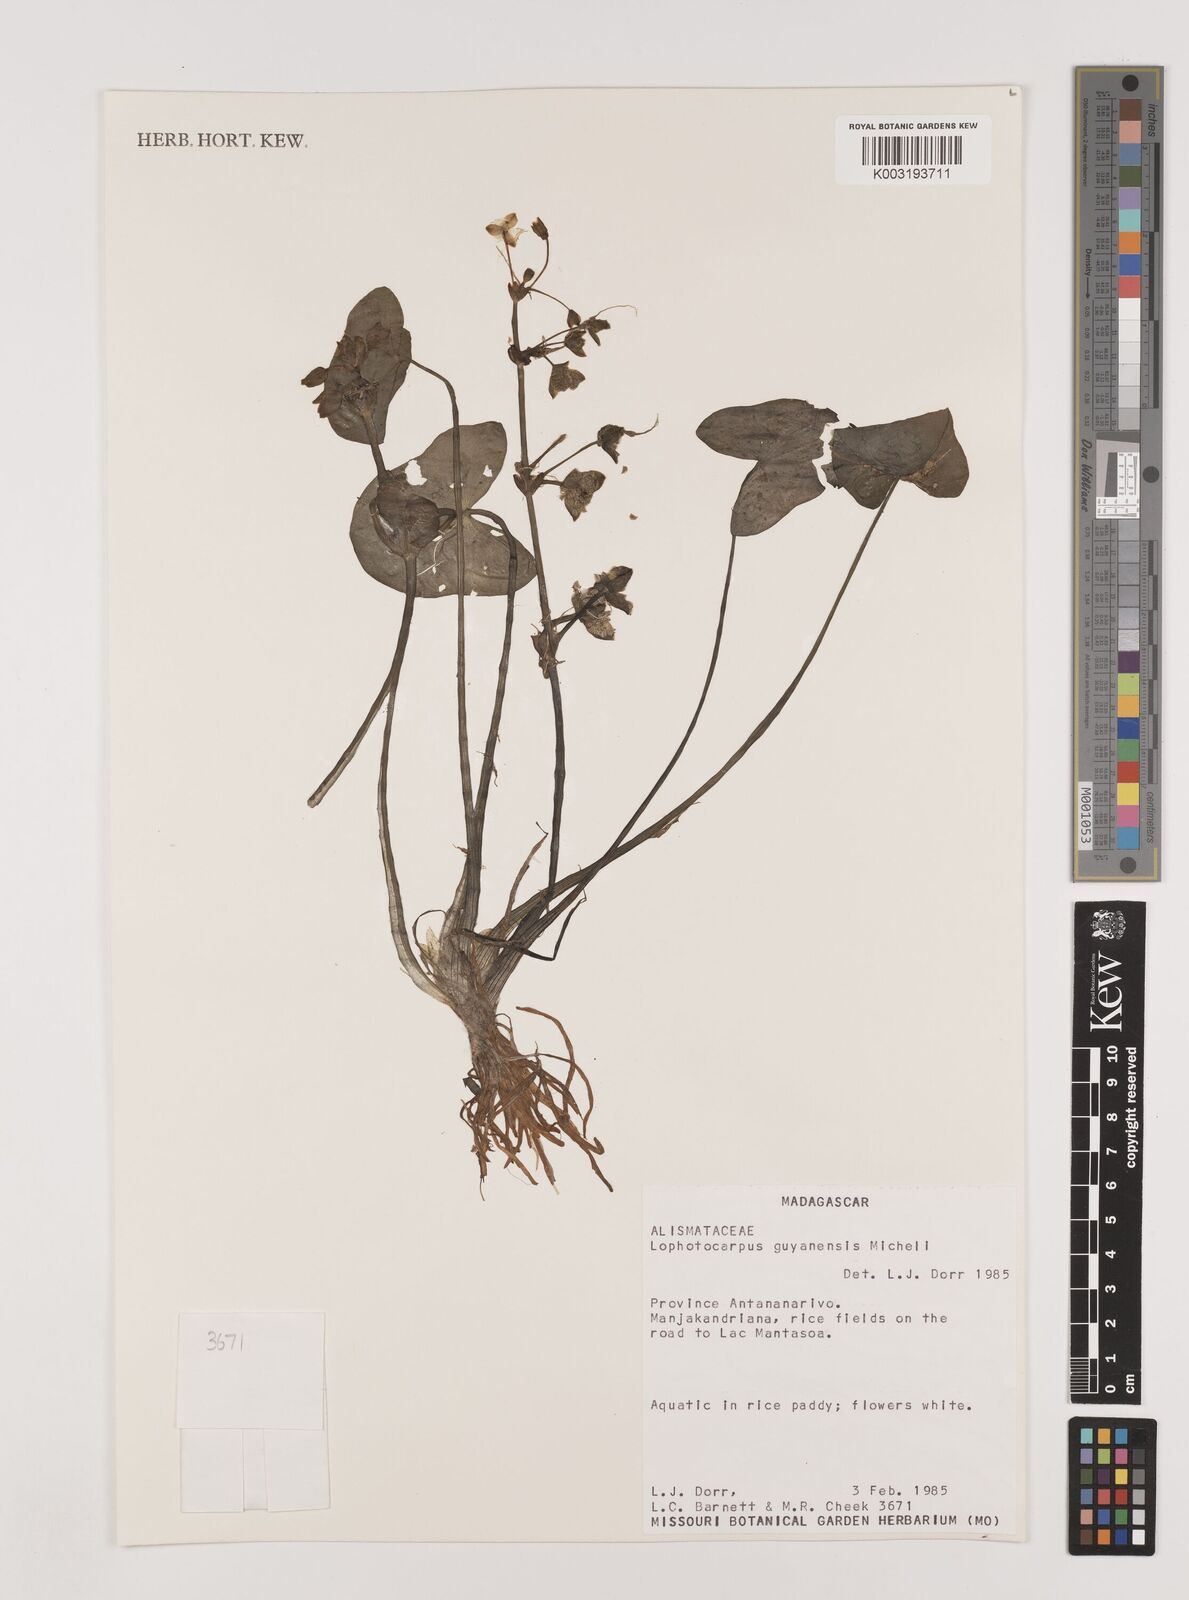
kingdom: Plantae
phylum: Tracheophyta
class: Liliopsida
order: Alismatales
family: Alismataceae
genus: Sagittaria
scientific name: Sagittaria guayanensis
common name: Guyanese arrowhead
